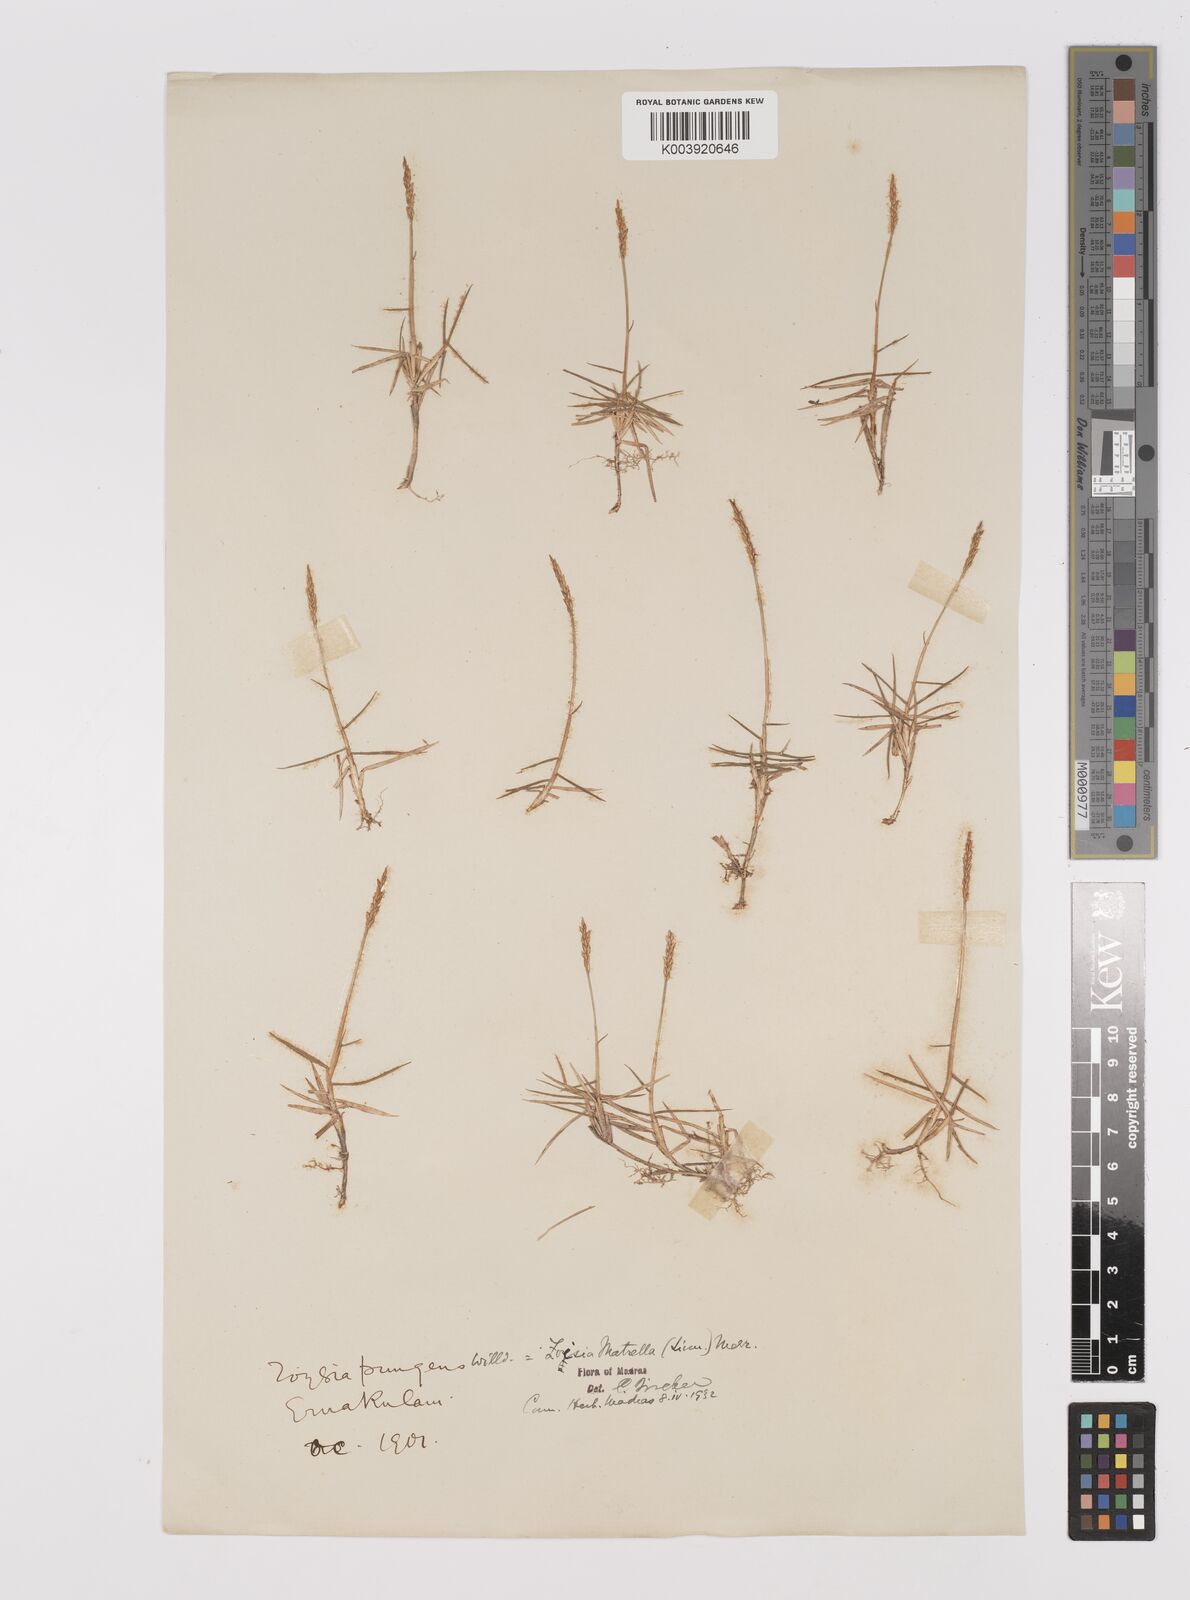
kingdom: Plantae
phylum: Tracheophyta
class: Liliopsida
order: Poales
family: Poaceae
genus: Zoysia
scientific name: Zoysia matrella
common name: Manila grass
